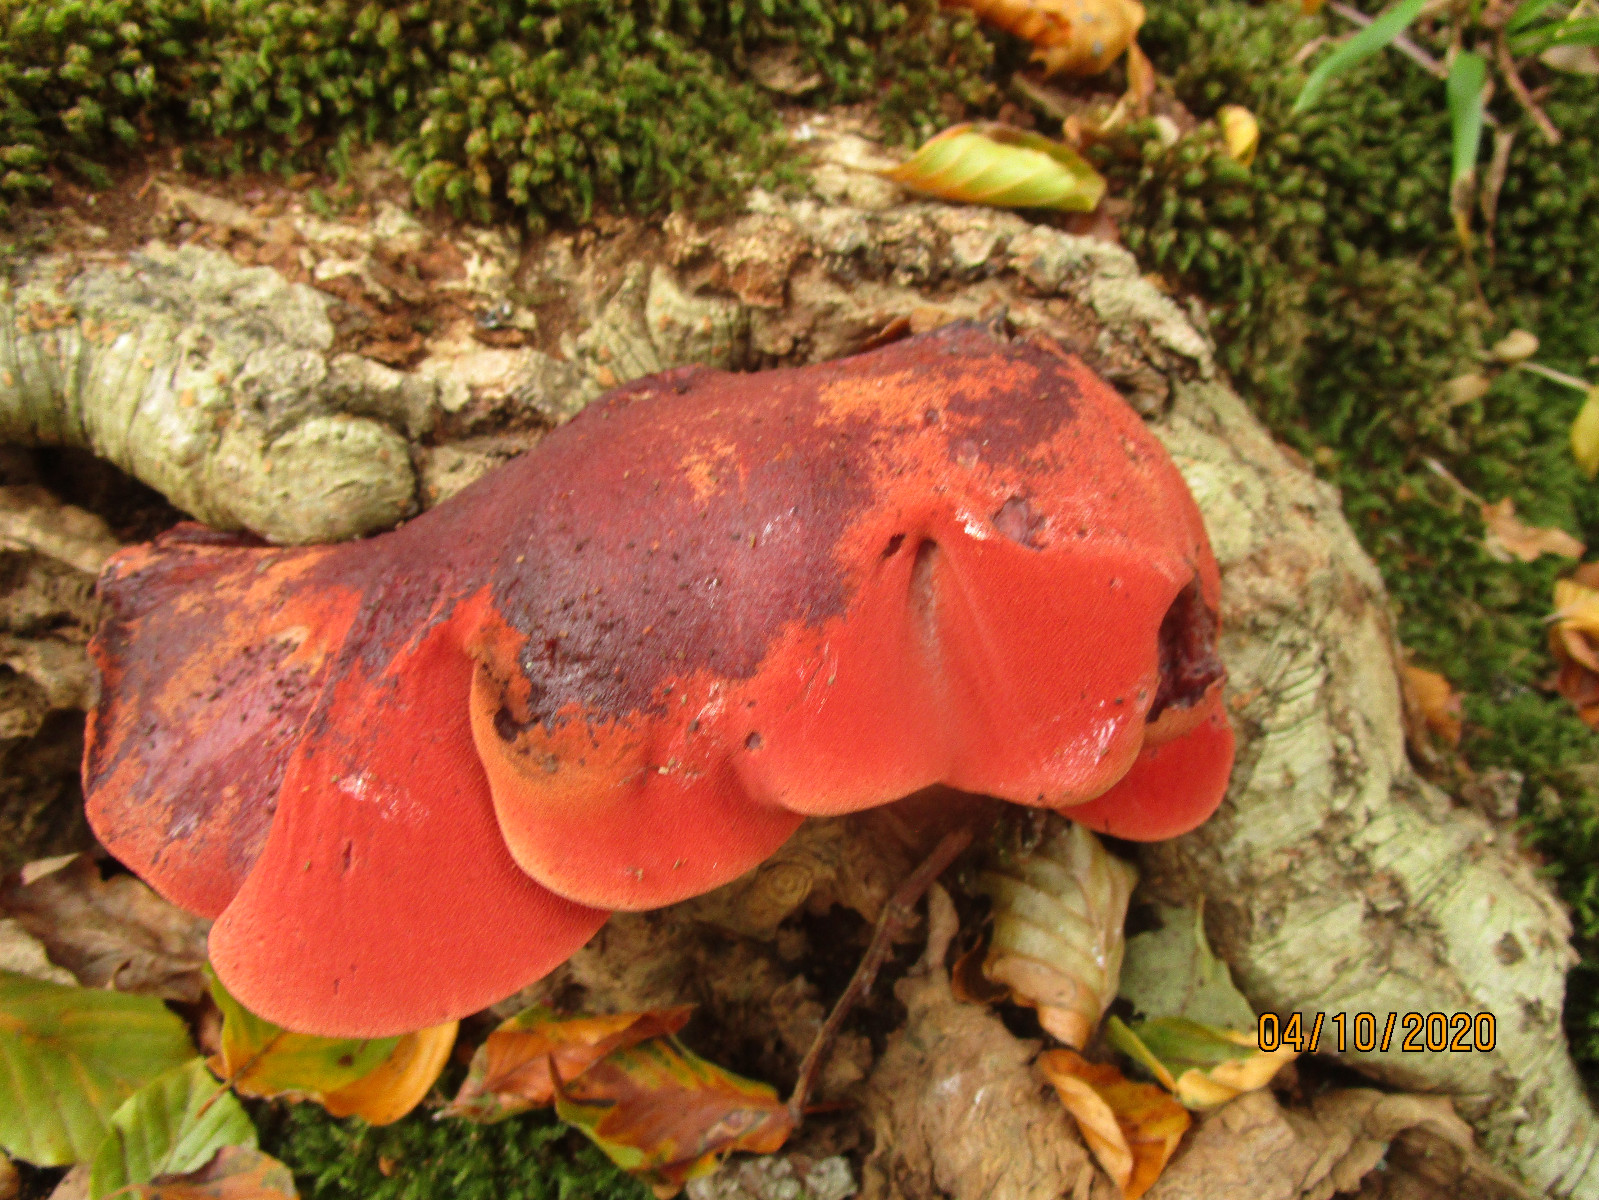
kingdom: Fungi
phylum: Basidiomycota
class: Agaricomycetes
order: Agaricales
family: Fistulinaceae
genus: Fistulina
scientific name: Fistulina hepatica
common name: oksetunge
